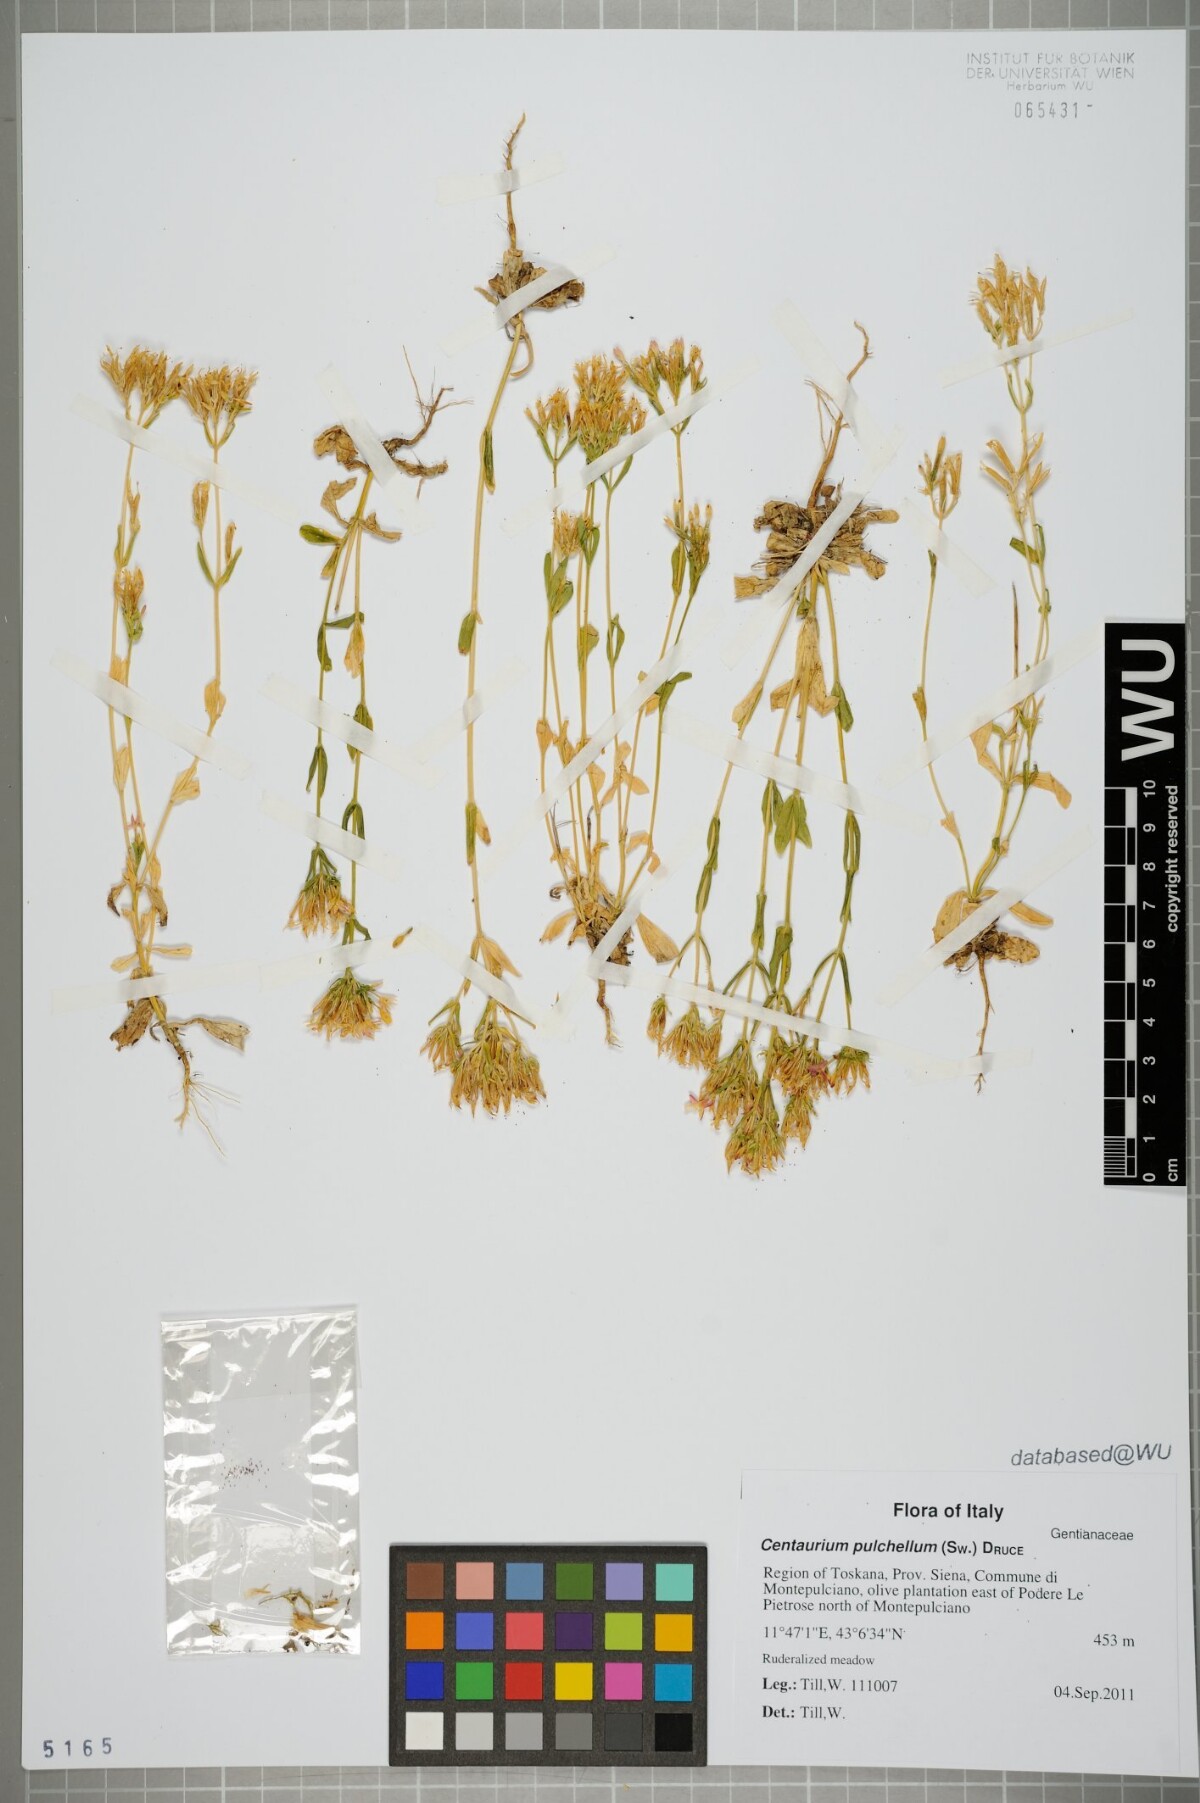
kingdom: Plantae
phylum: Tracheophyta
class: Magnoliopsida
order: Gentianales
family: Gentianaceae
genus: Centaurium
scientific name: Centaurium pulchellum
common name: Lesser centaury
